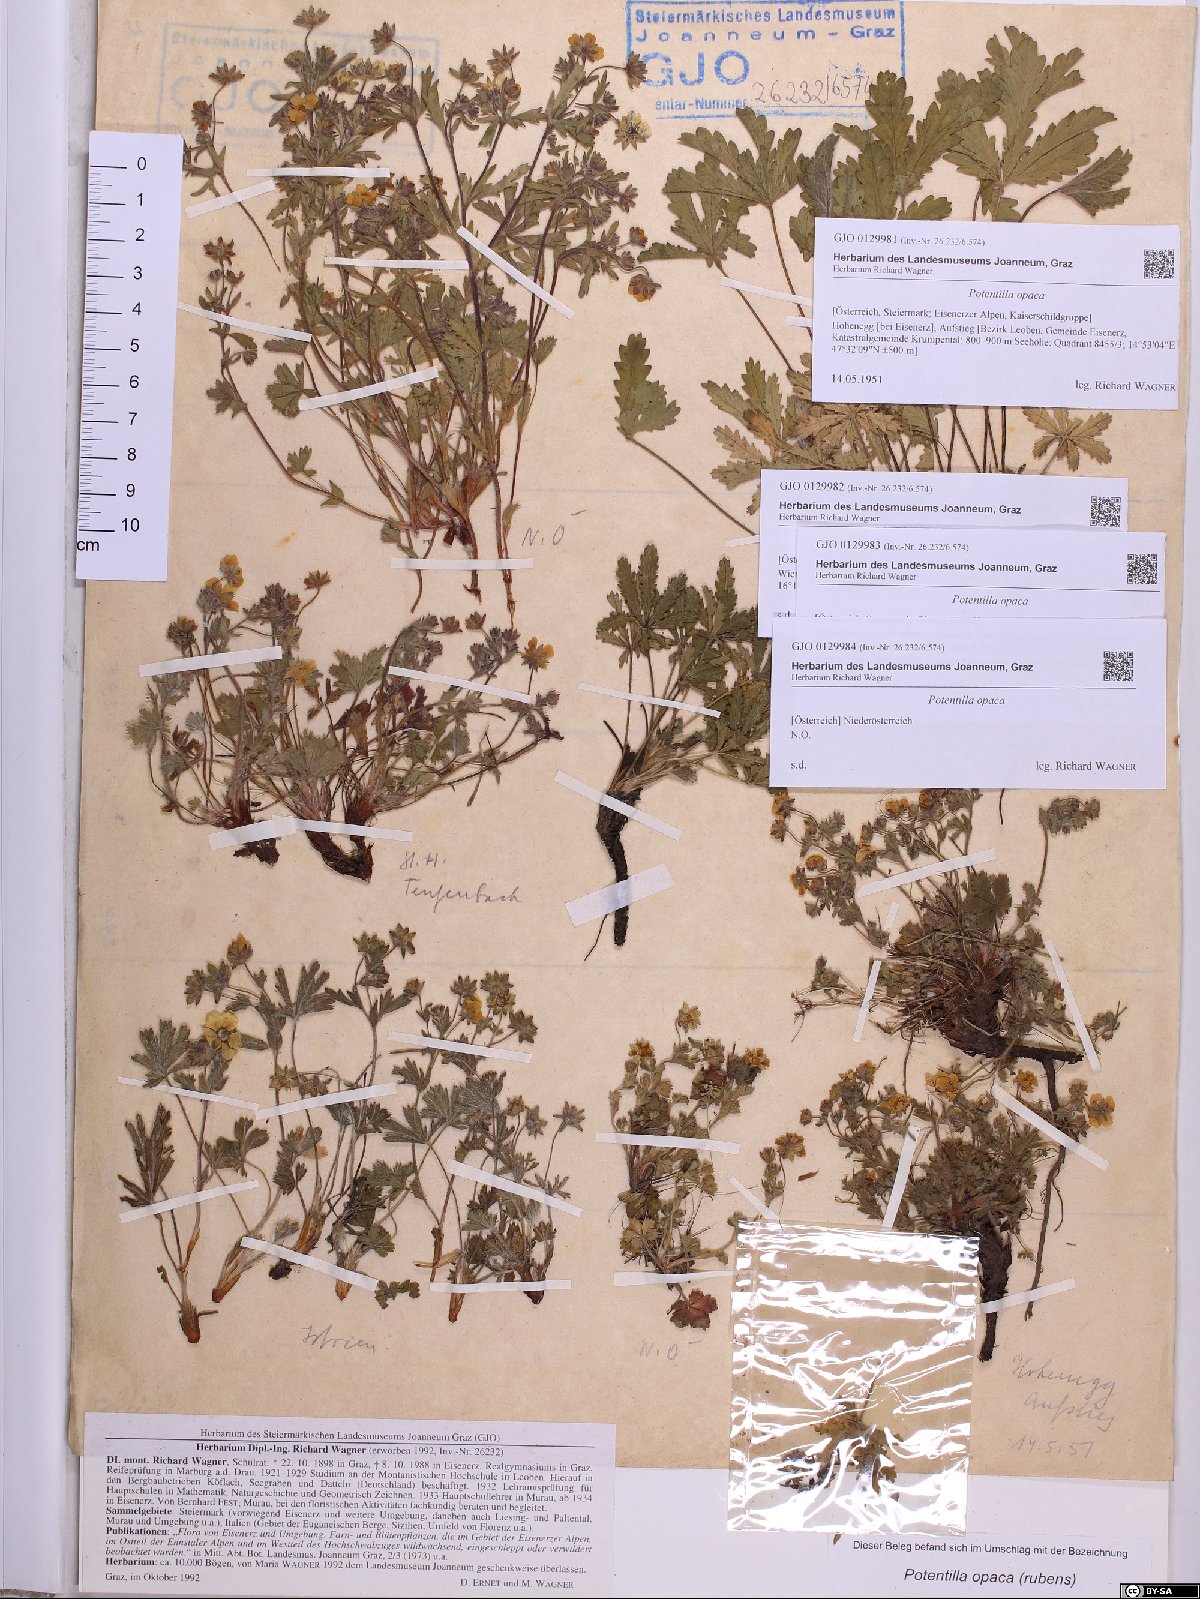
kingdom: Plantae
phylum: Tracheophyta
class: Magnoliopsida
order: Rosales
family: Rosaceae
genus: Potentilla
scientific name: Potentilla
